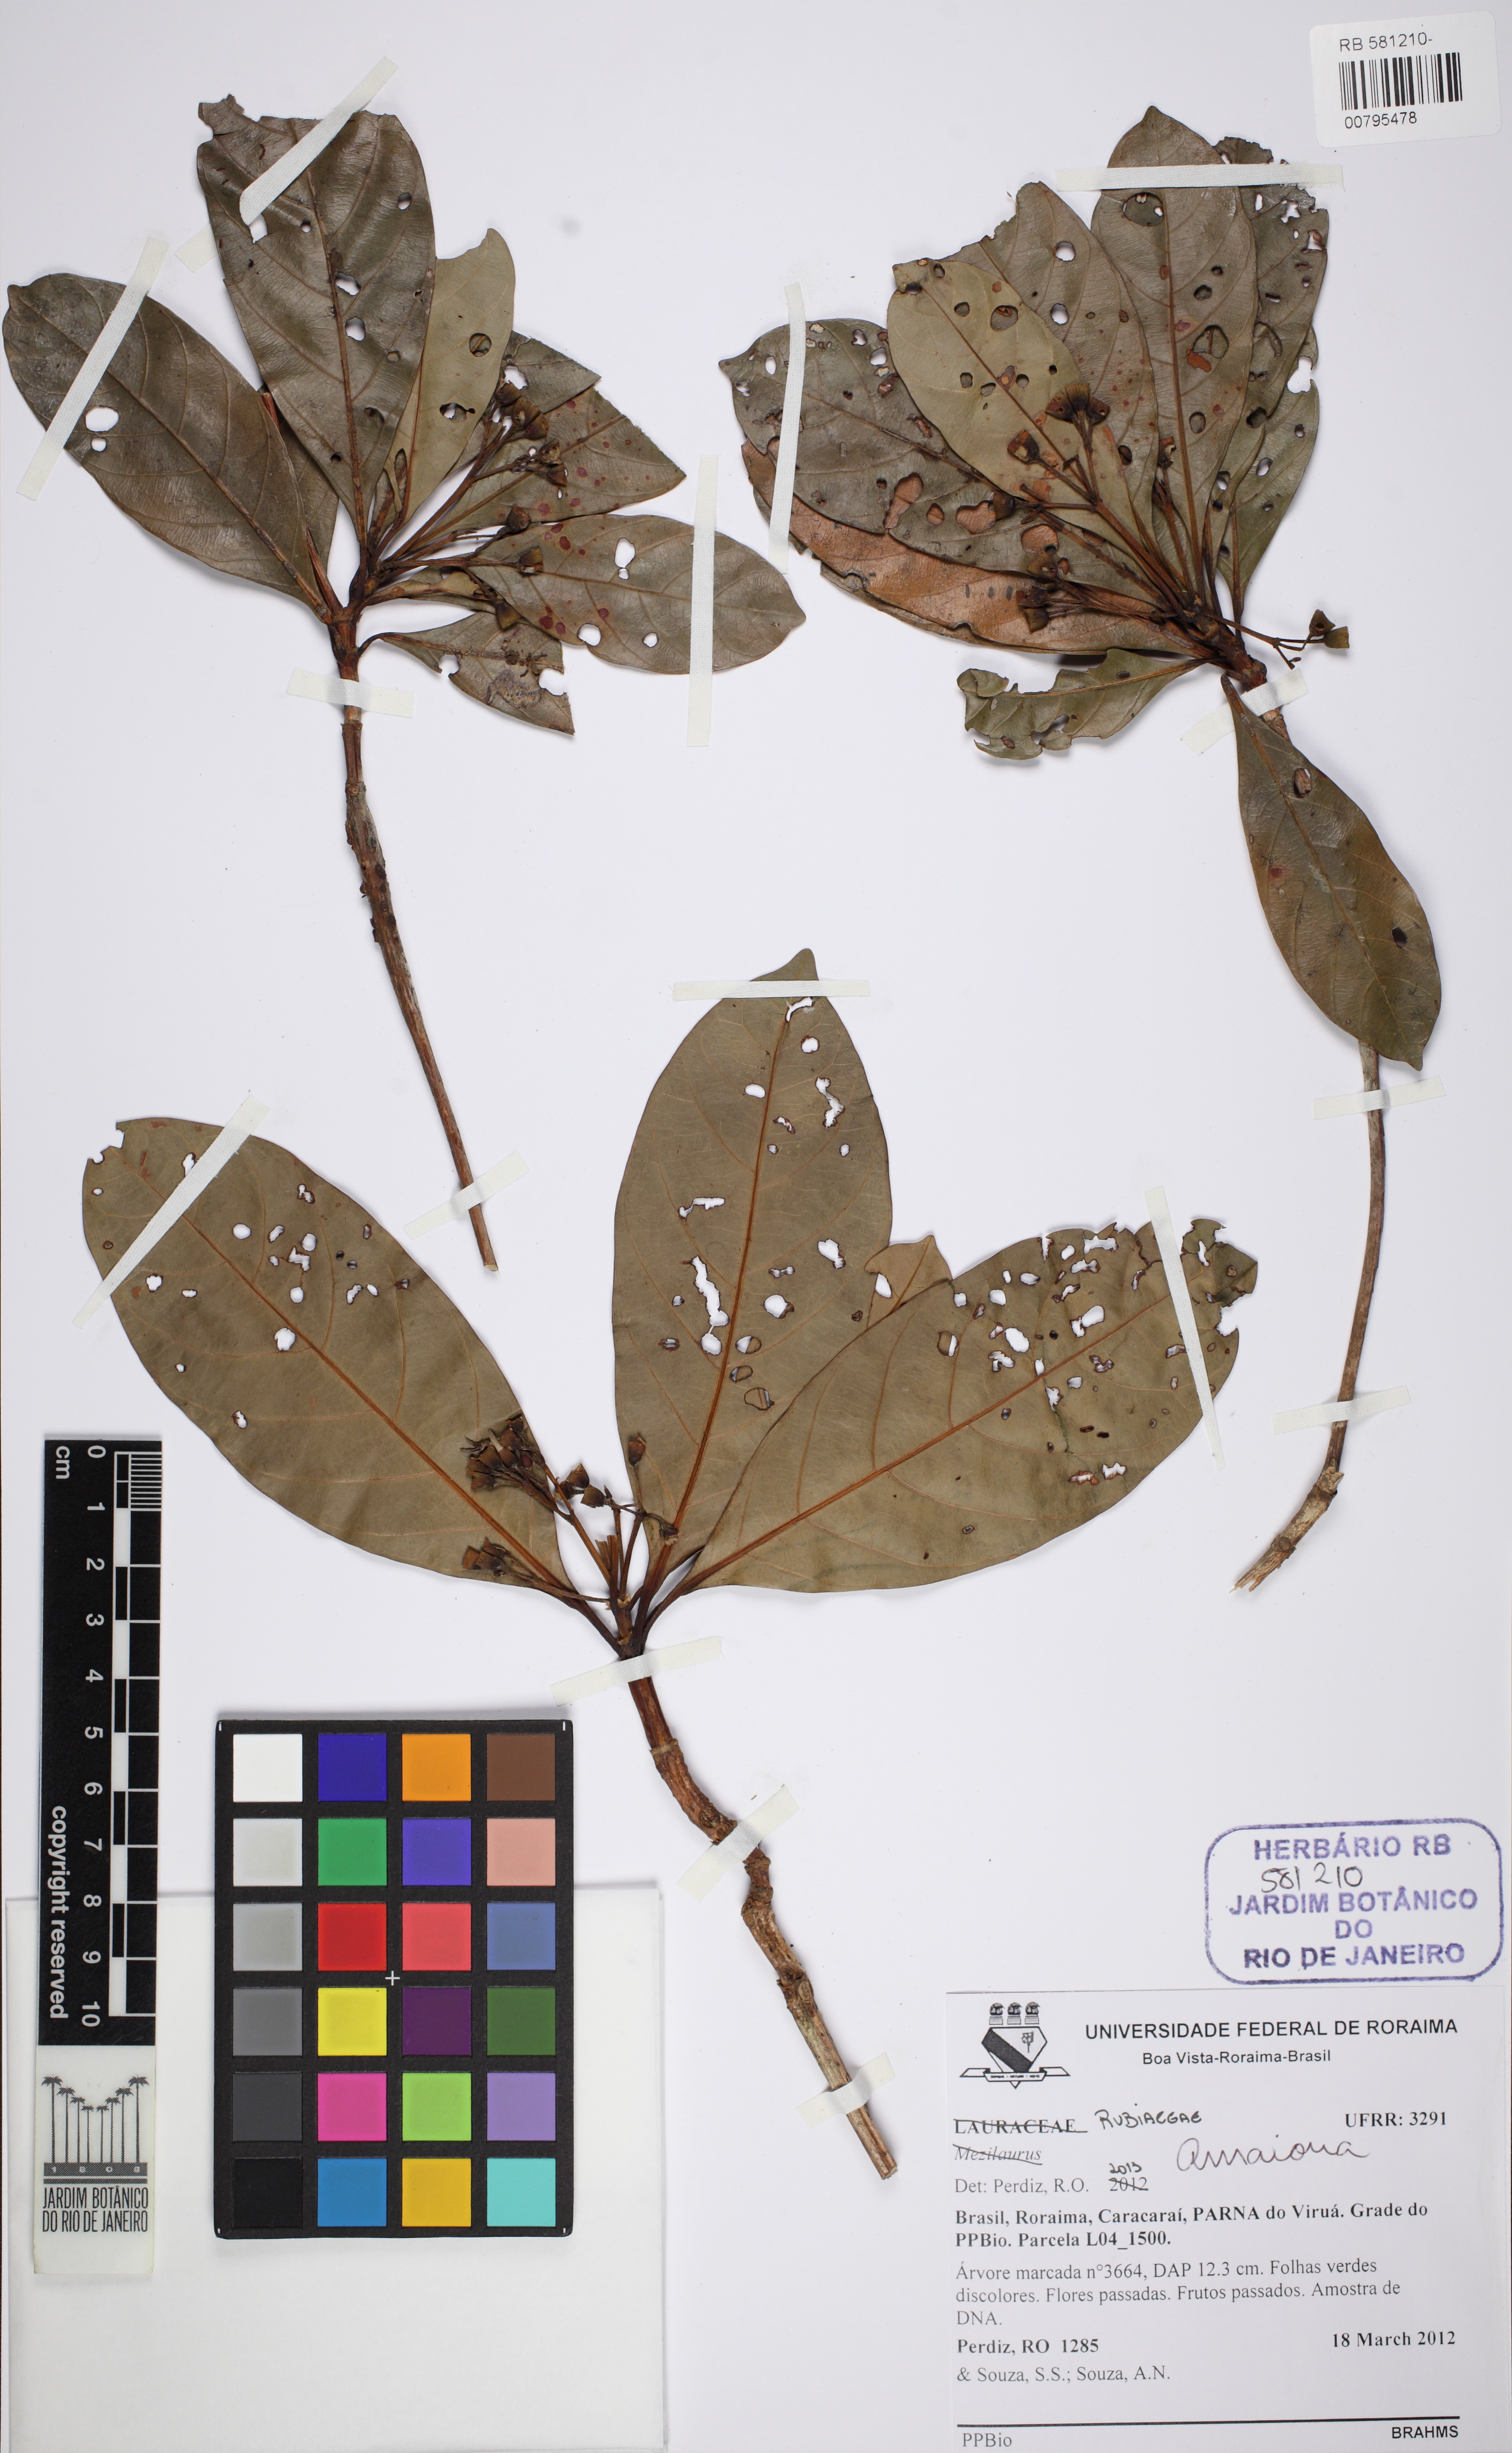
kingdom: Plantae
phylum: Tracheophyta
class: Magnoliopsida
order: Gentianales
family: Rubiaceae
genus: Duroia
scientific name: Duroia prancei
